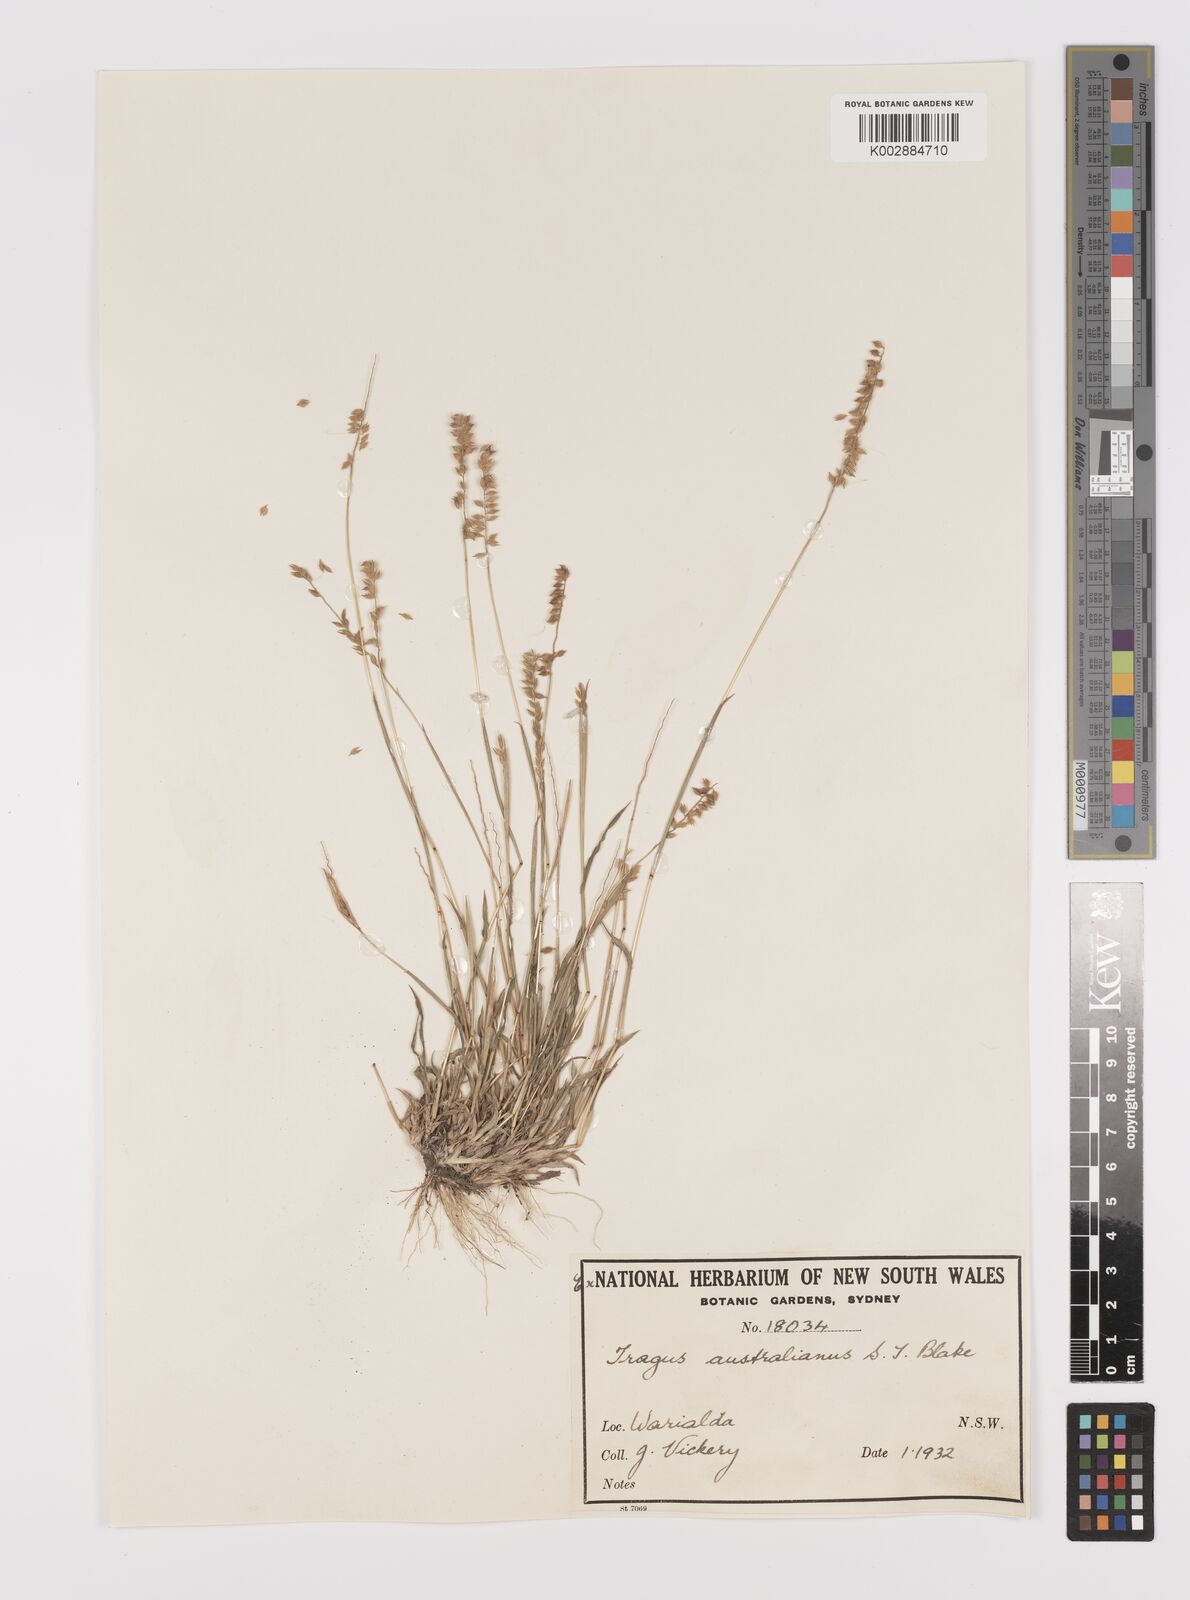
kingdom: Plantae
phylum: Tracheophyta
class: Liliopsida
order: Poales
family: Poaceae
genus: Tragus
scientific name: Tragus australianus
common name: Australian bur-grass
